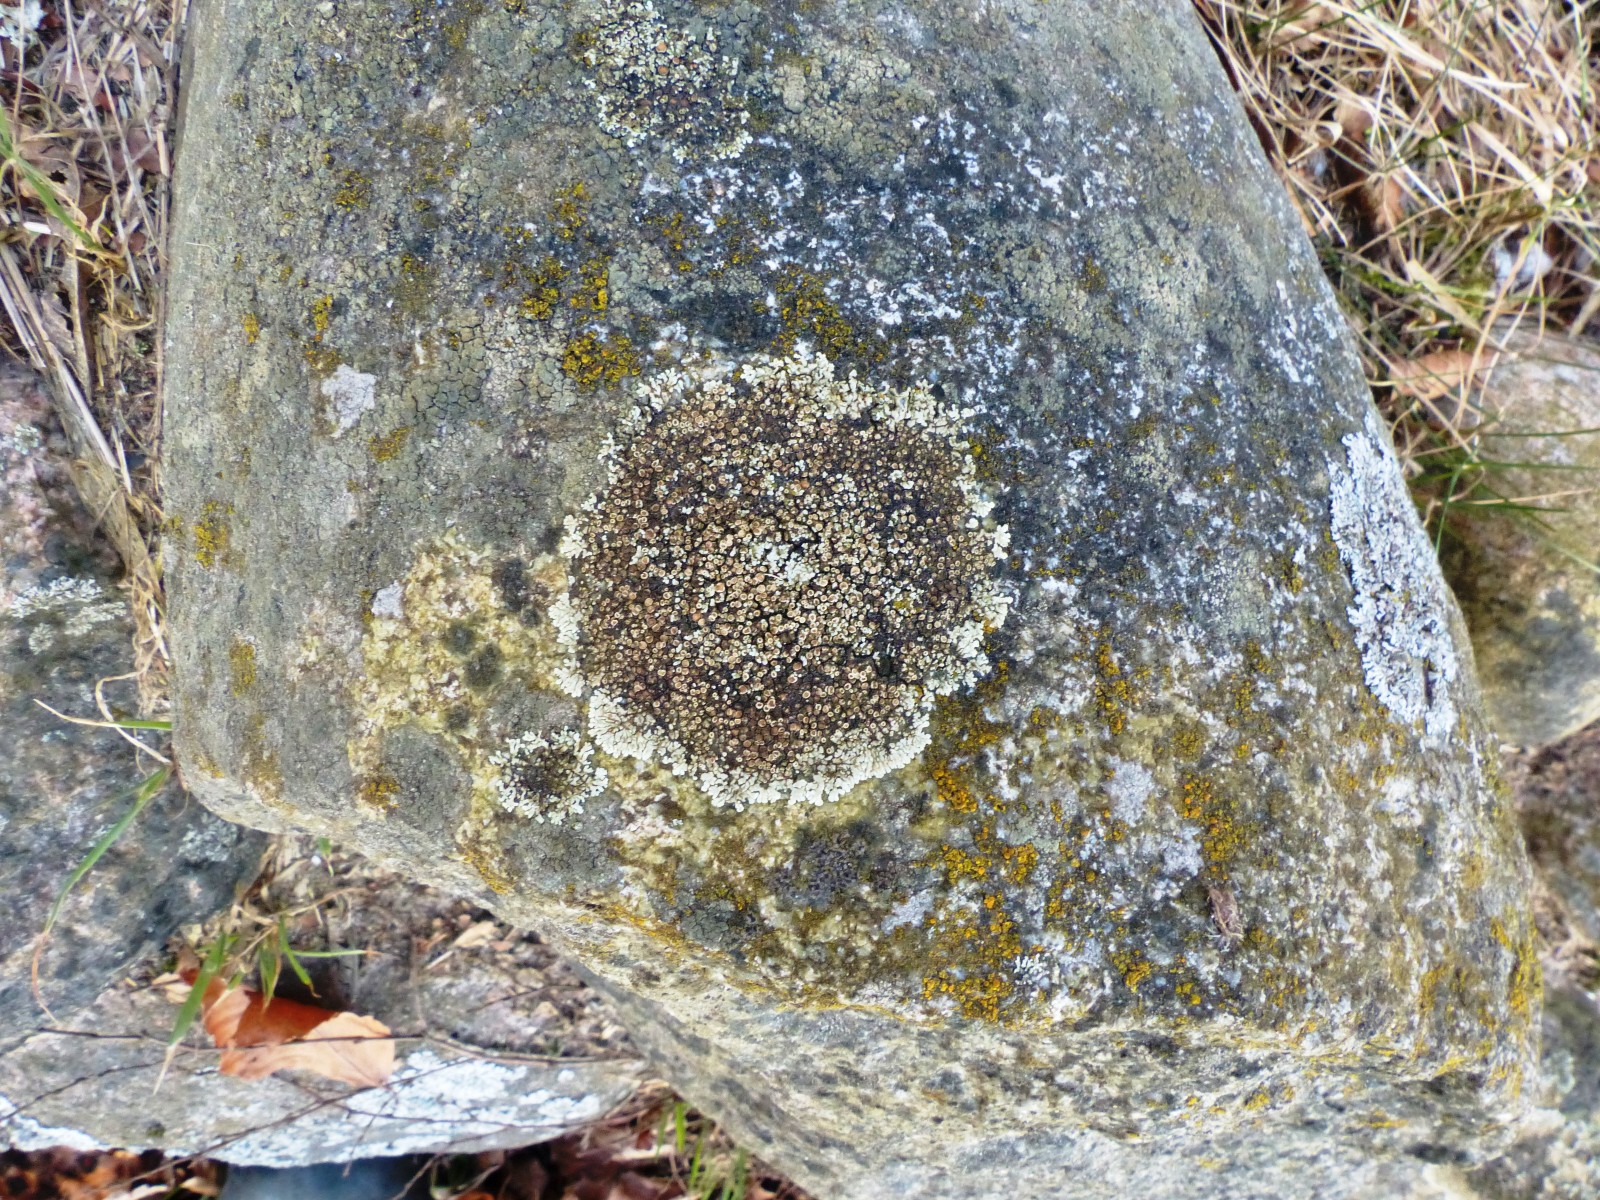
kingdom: Fungi
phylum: Ascomycota
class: Lecanoromycetes
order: Lecanorales
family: Lecanoraceae
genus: Protoparmeliopsis
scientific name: Protoparmeliopsis muralis
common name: randfliget kantskivelav
